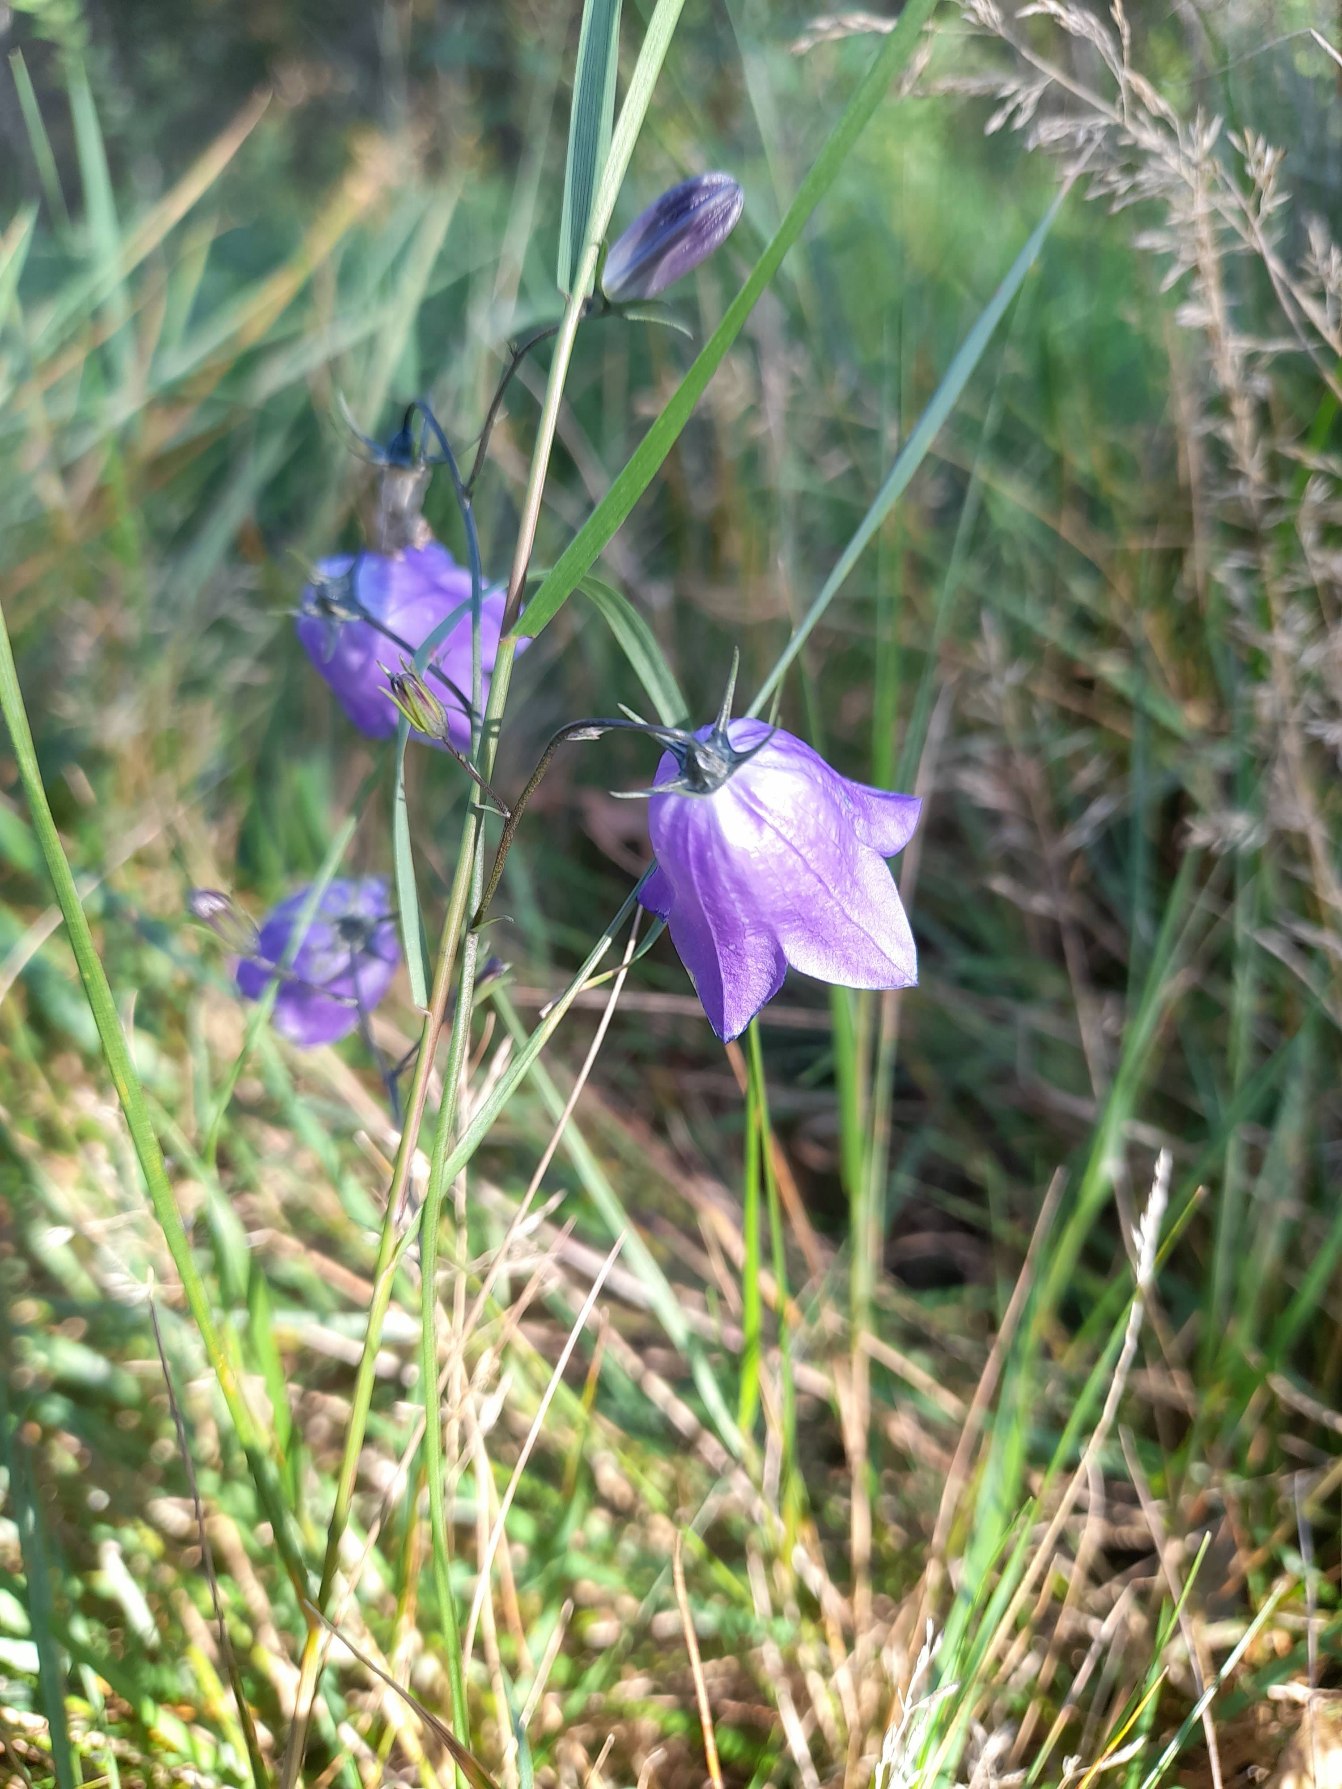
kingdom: Plantae
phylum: Tracheophyta
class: Magnoliopsida
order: Asterales
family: Campanulaceae
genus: Campanula
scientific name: Campanula rotundifolia
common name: Liden klokke
